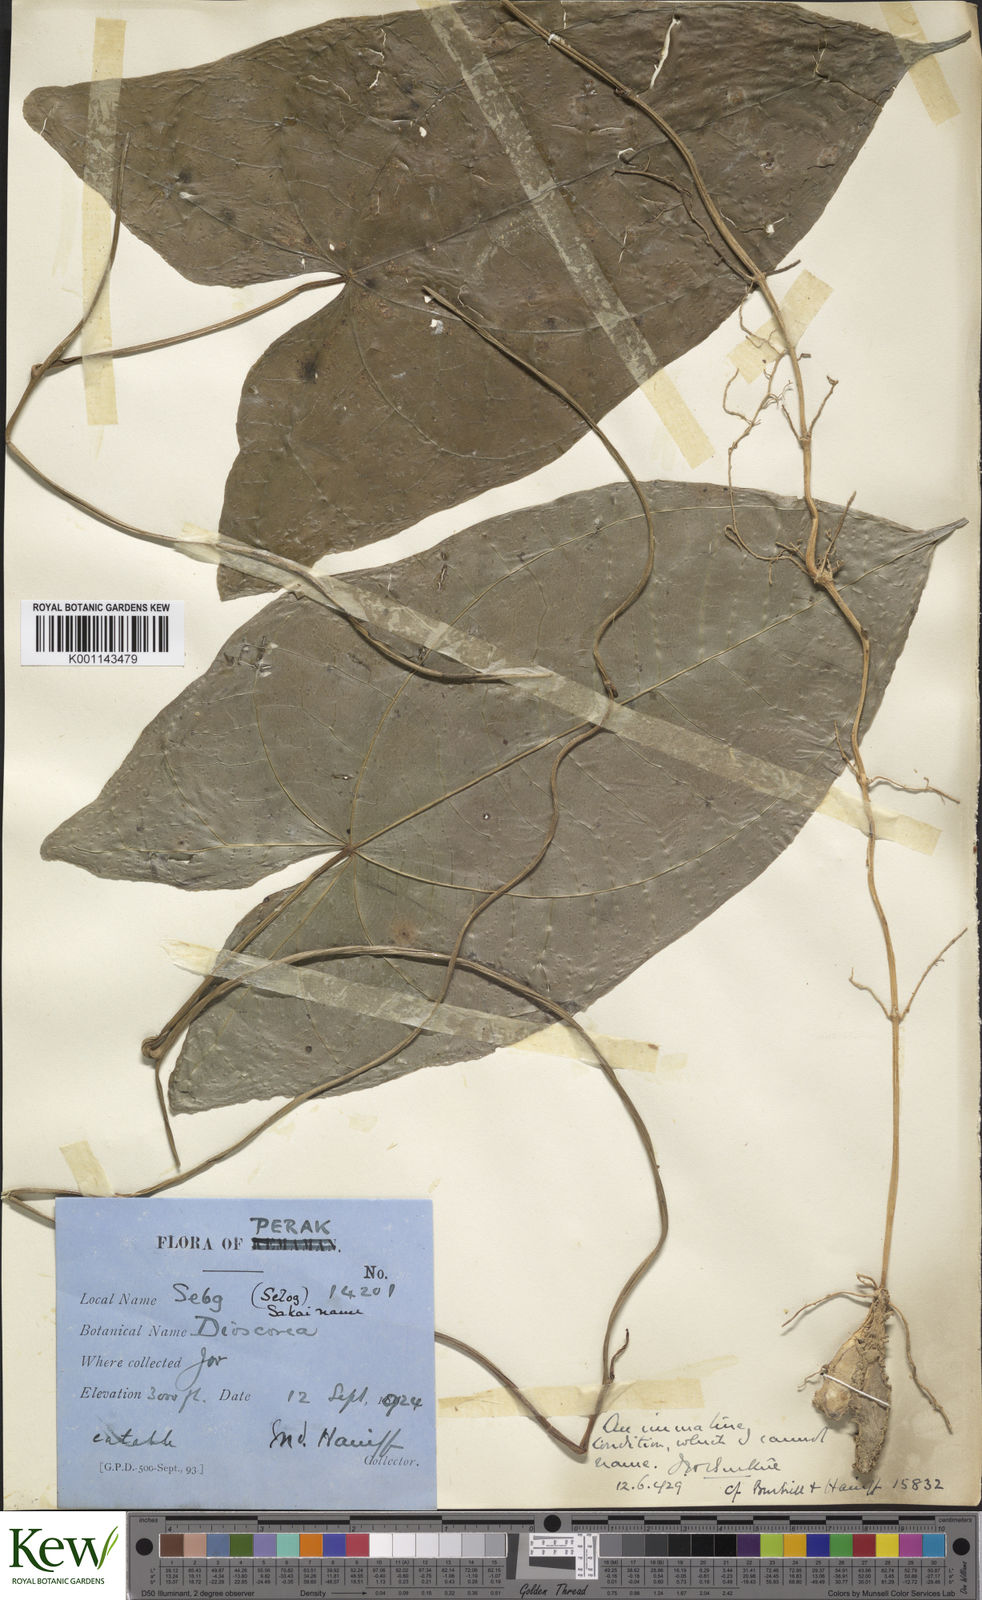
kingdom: Plantae
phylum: Tracheophyta
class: Liliopsida
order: Dioscoreales
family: Dioscoreaceae
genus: Dioscorea
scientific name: Dioscorea
